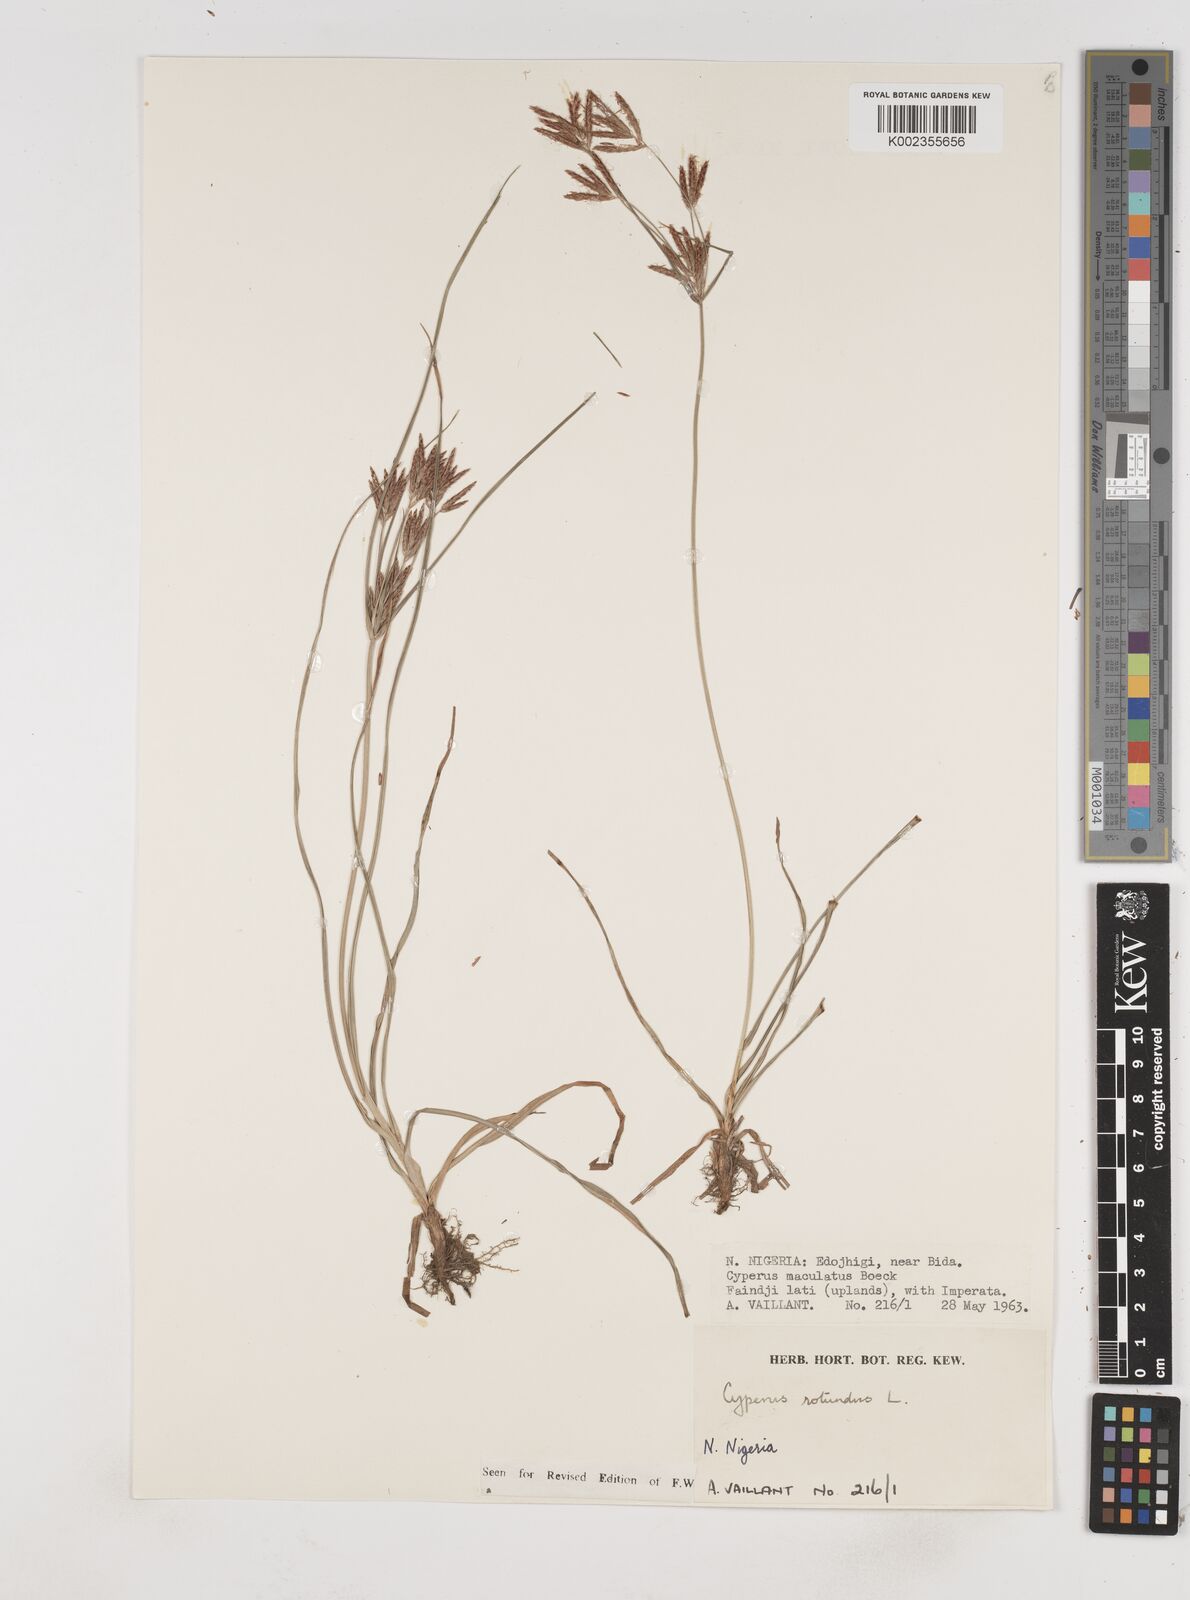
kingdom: Plantae
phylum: Tracheophyta
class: Liliopsida
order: Poales
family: Cyperaceae
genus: Cyperus
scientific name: Cyperus rotundus
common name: Nutgrass
